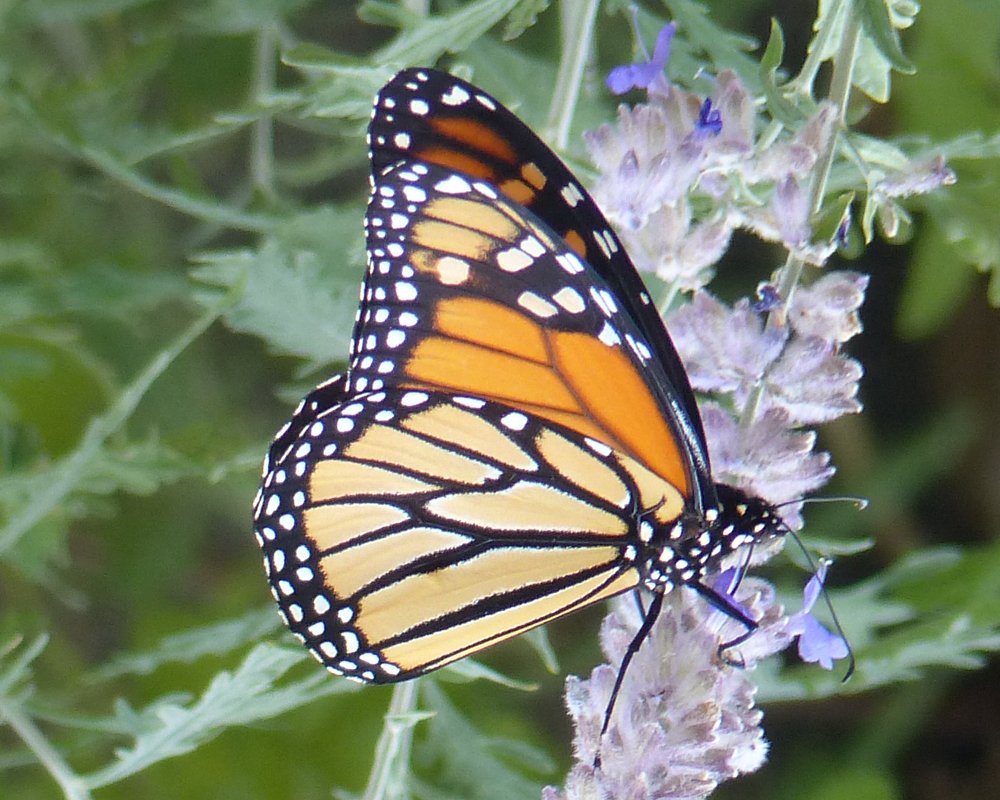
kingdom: Animalia
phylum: Arthropoda
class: Insecta
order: Lepidoptera
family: Nymphalidae
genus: Danaus
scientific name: Danaus plexippus
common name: Monarch
